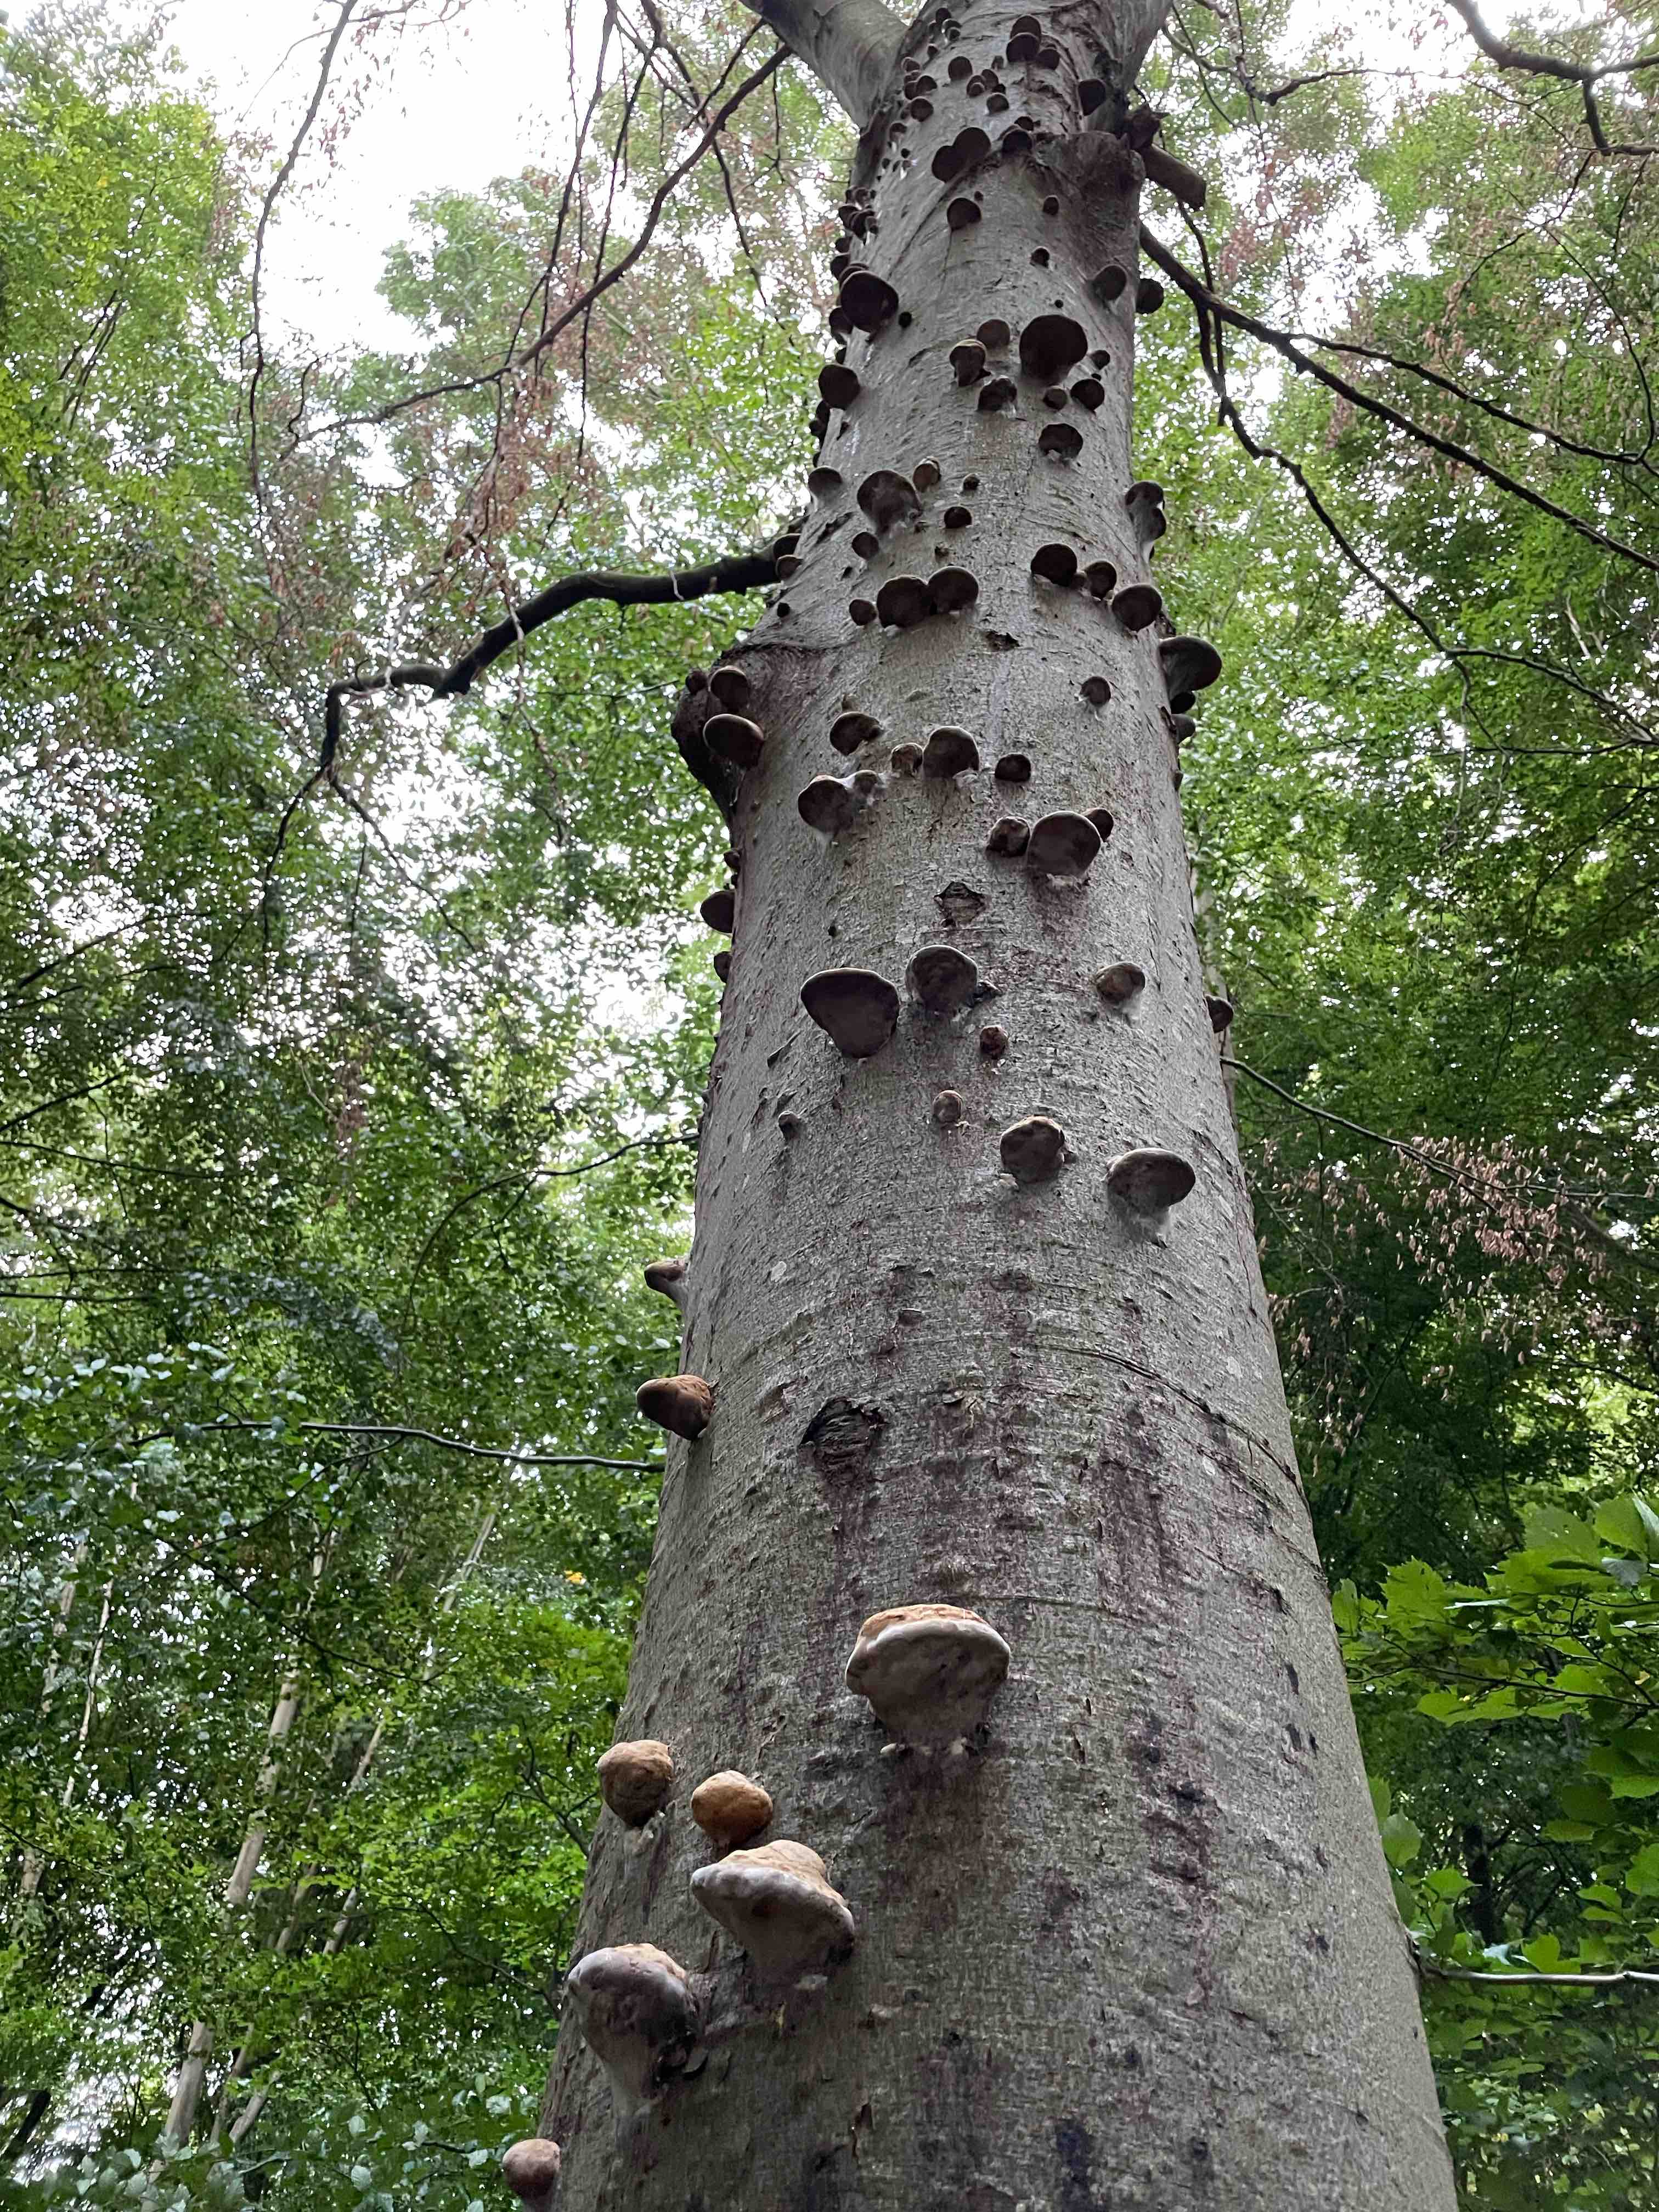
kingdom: Fungi
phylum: Basidiomycota
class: Agaricomycetes
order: Polyporales
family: Polyporaceae
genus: Fomes
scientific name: Fomes fomentarius
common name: tøndersvamp
